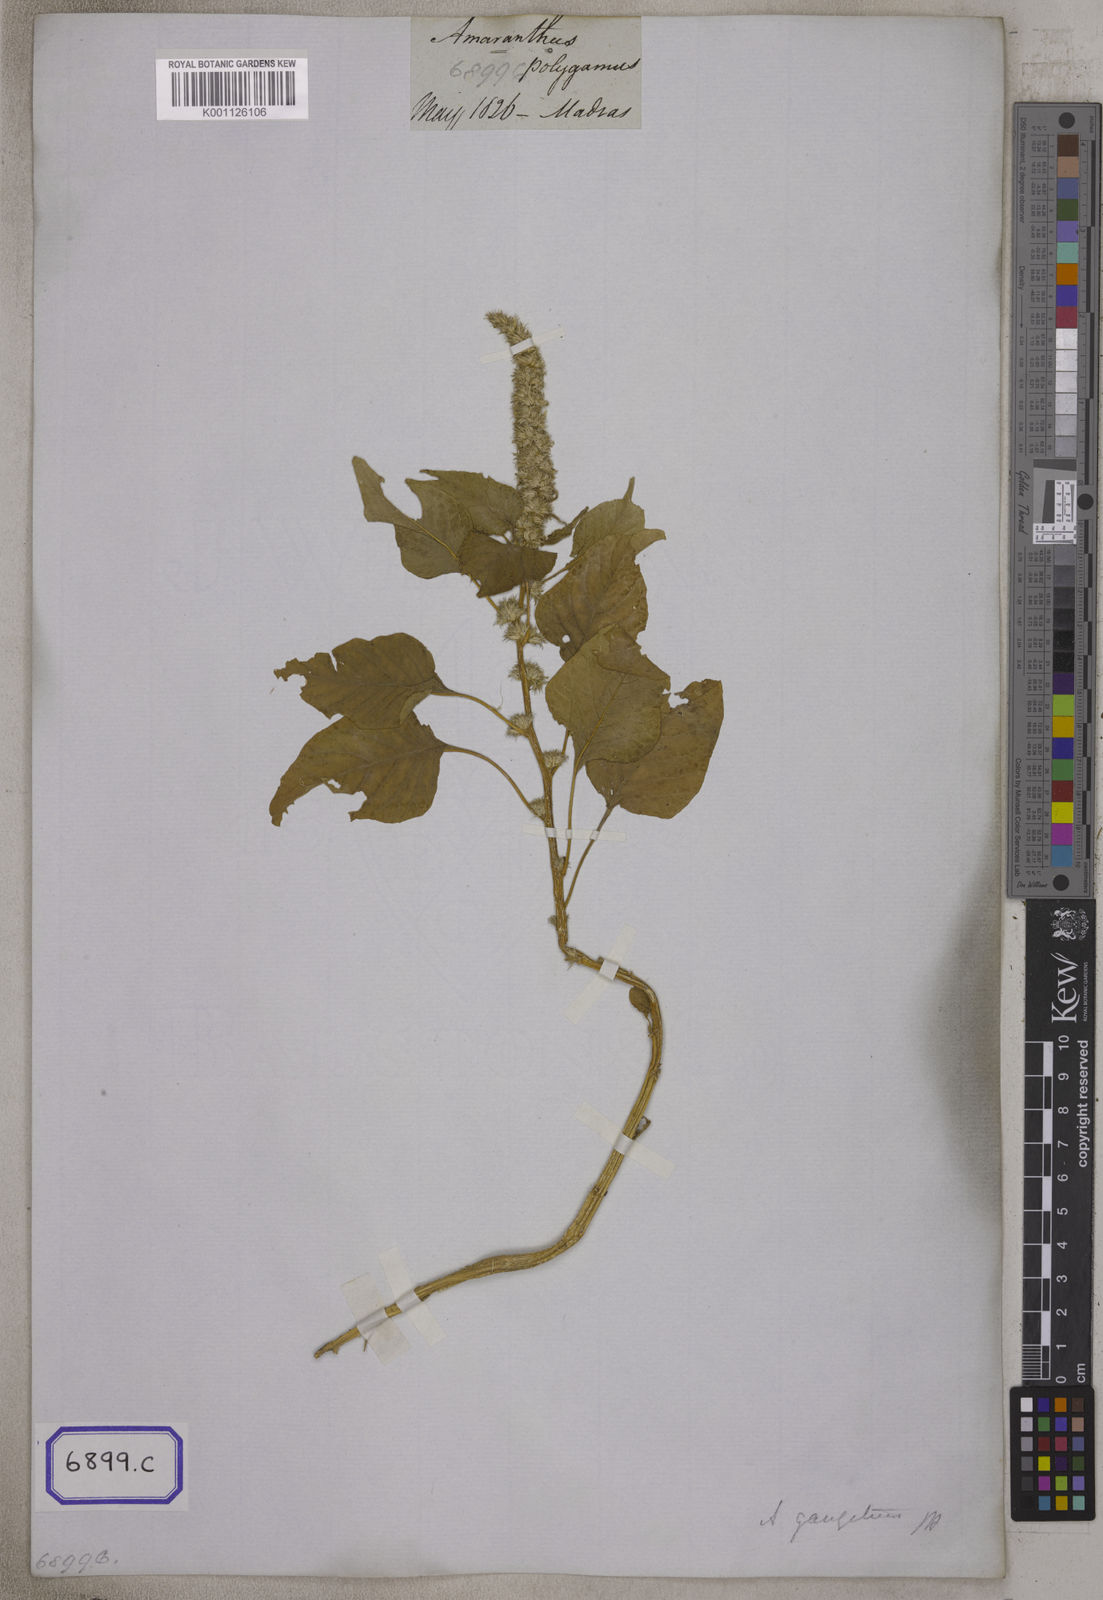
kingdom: Plantae
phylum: Tracheophyta
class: Magnoliopsida
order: Caryophyllales
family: Amaranthaceae
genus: Amaranthus
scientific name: Amaranthus
